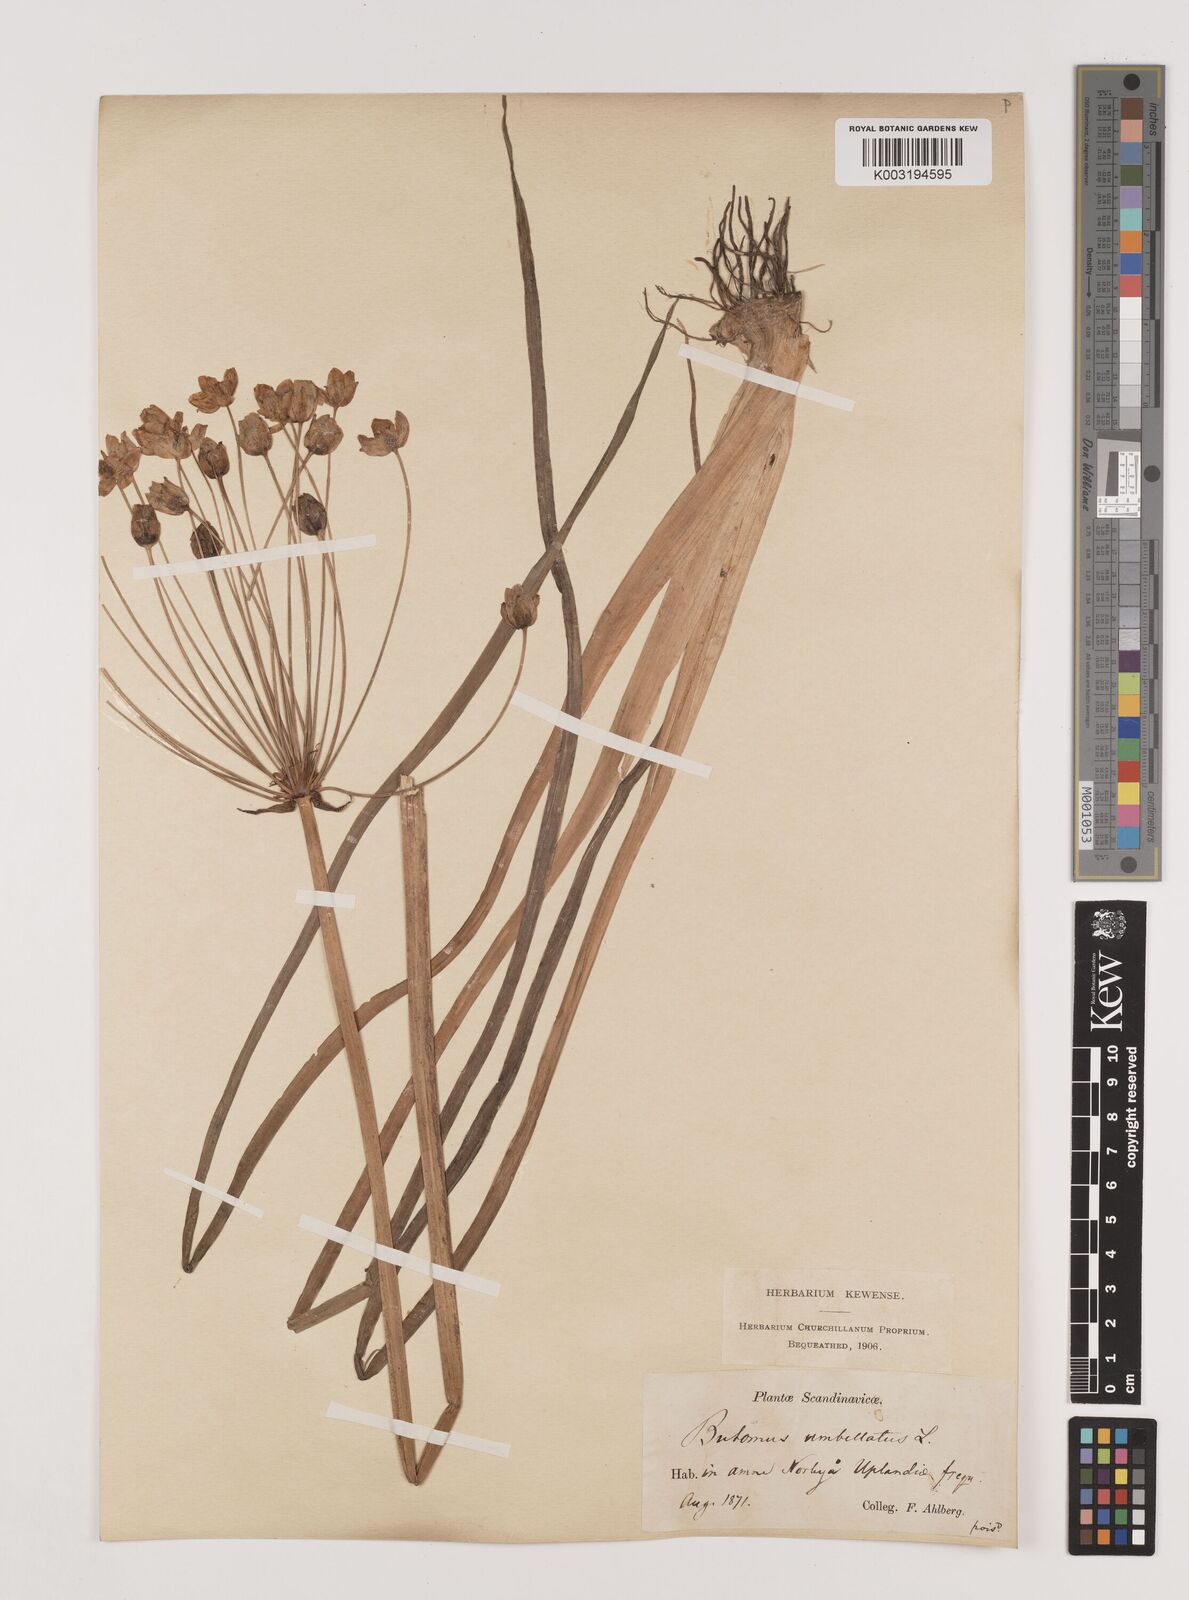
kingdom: Plantae
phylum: Tracheophyta
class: Liliopsida
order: Alismatales
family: Butomaceae
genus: Butomus
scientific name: Butomus umbellatus
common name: Flowering-rush
